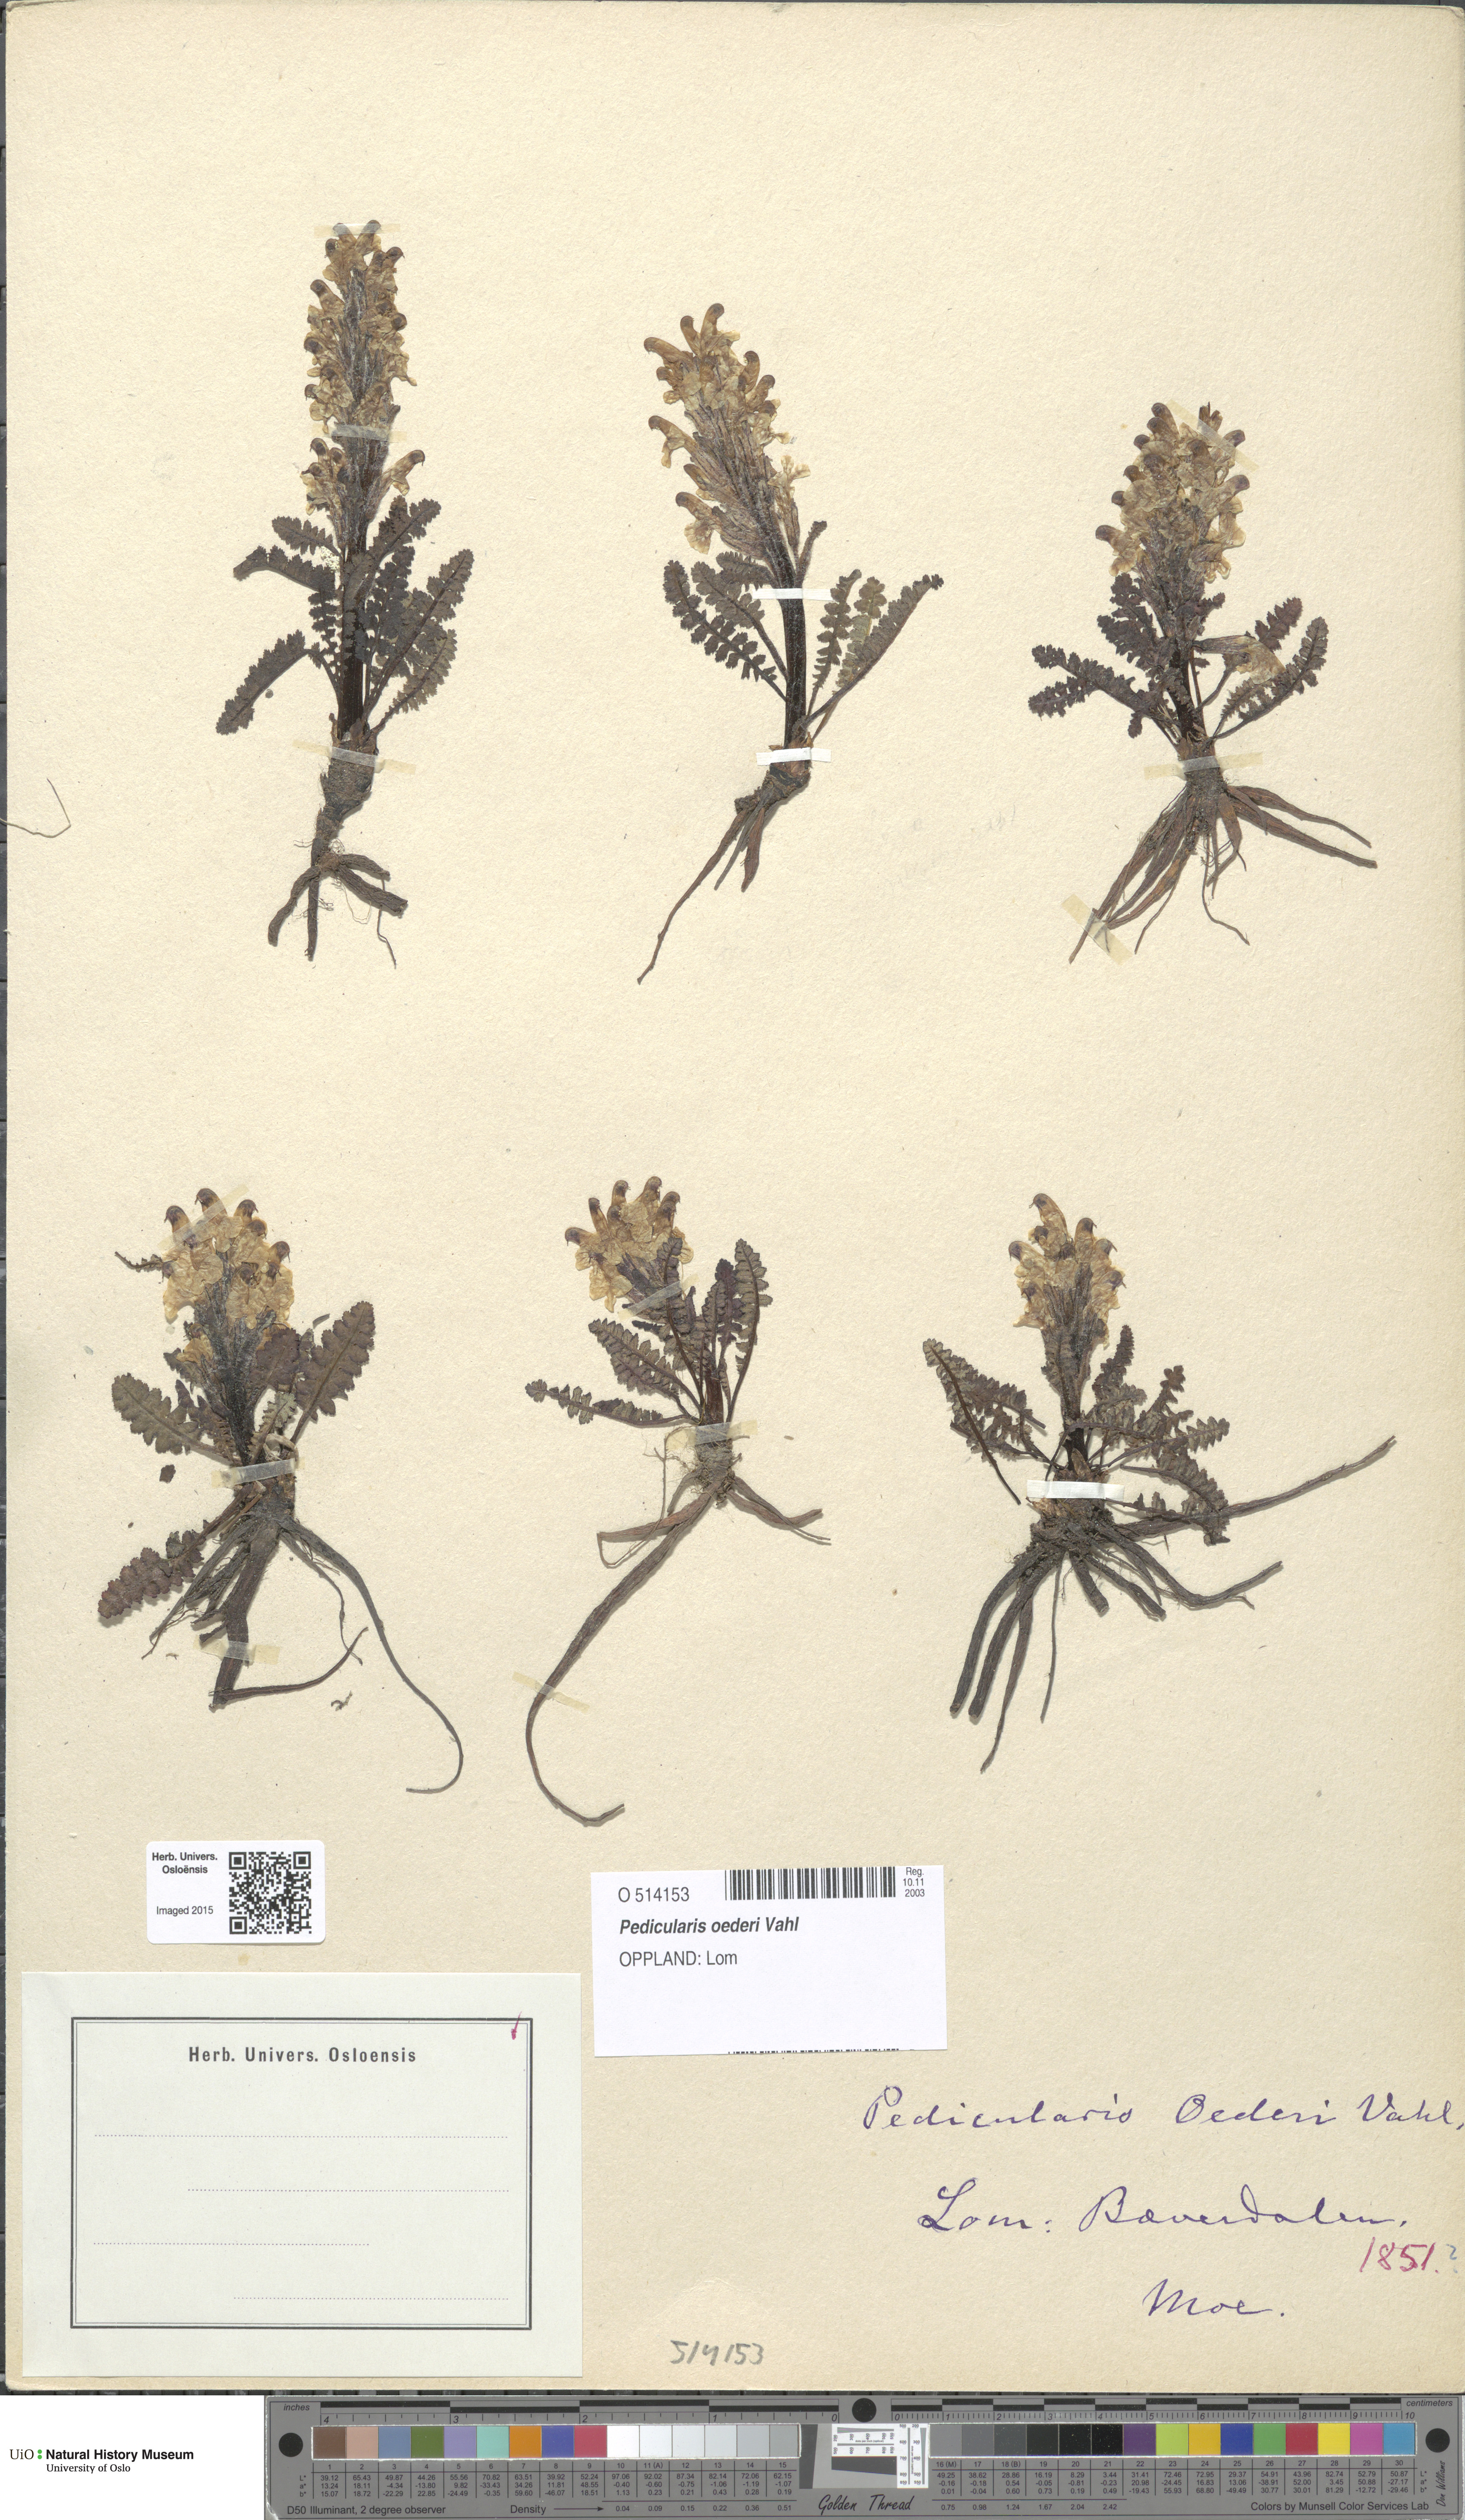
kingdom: Plantae
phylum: Tracheophyta
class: Magnoliopsida
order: Lamiales
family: Orobanchaceae
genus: Pedicularis
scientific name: Pedicularis oederi
